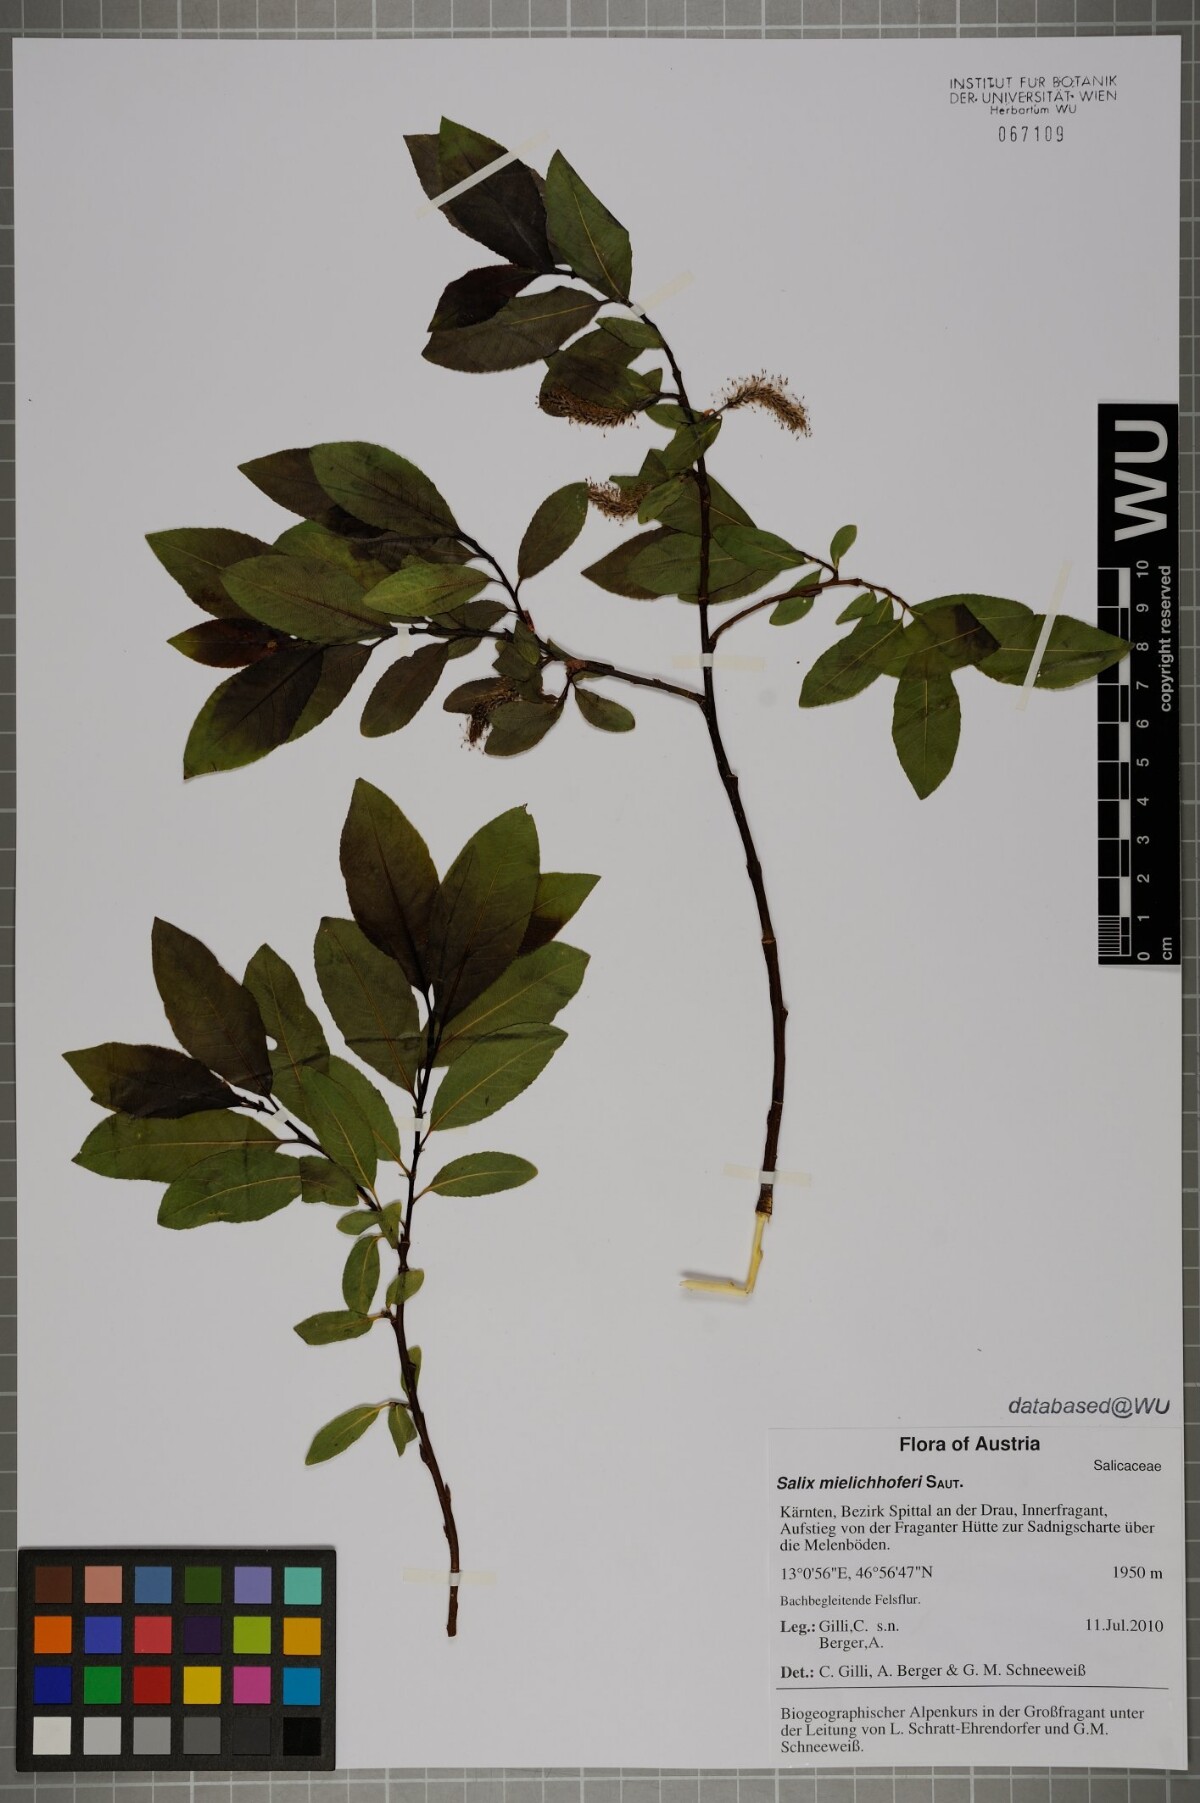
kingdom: Plantae
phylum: Tracheophyta
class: Magnoliopsida
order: Malpighiales
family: Salicaceae
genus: Salix
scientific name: Salix mielichhoferi
